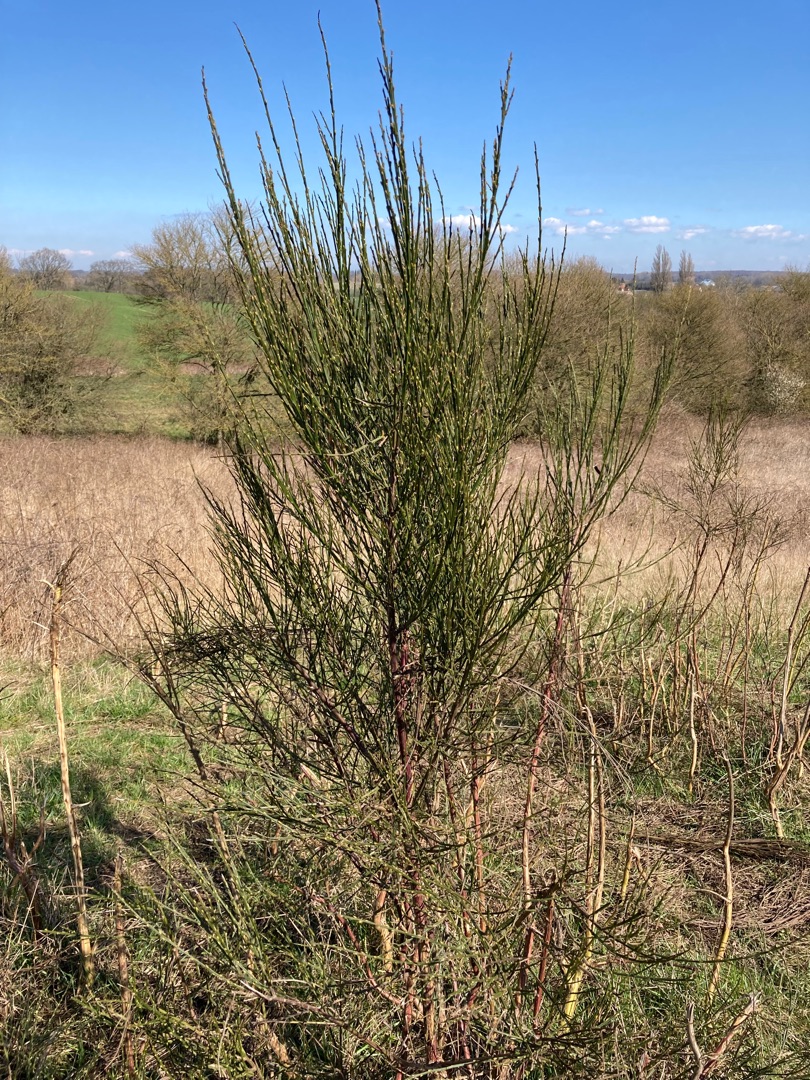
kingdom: Plantae
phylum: Tracheophyta
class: Magnoliopsida
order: Fabales
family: Fabaceae
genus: Cytisus
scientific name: Cytisus scoparius
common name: Almindelig gyvel
